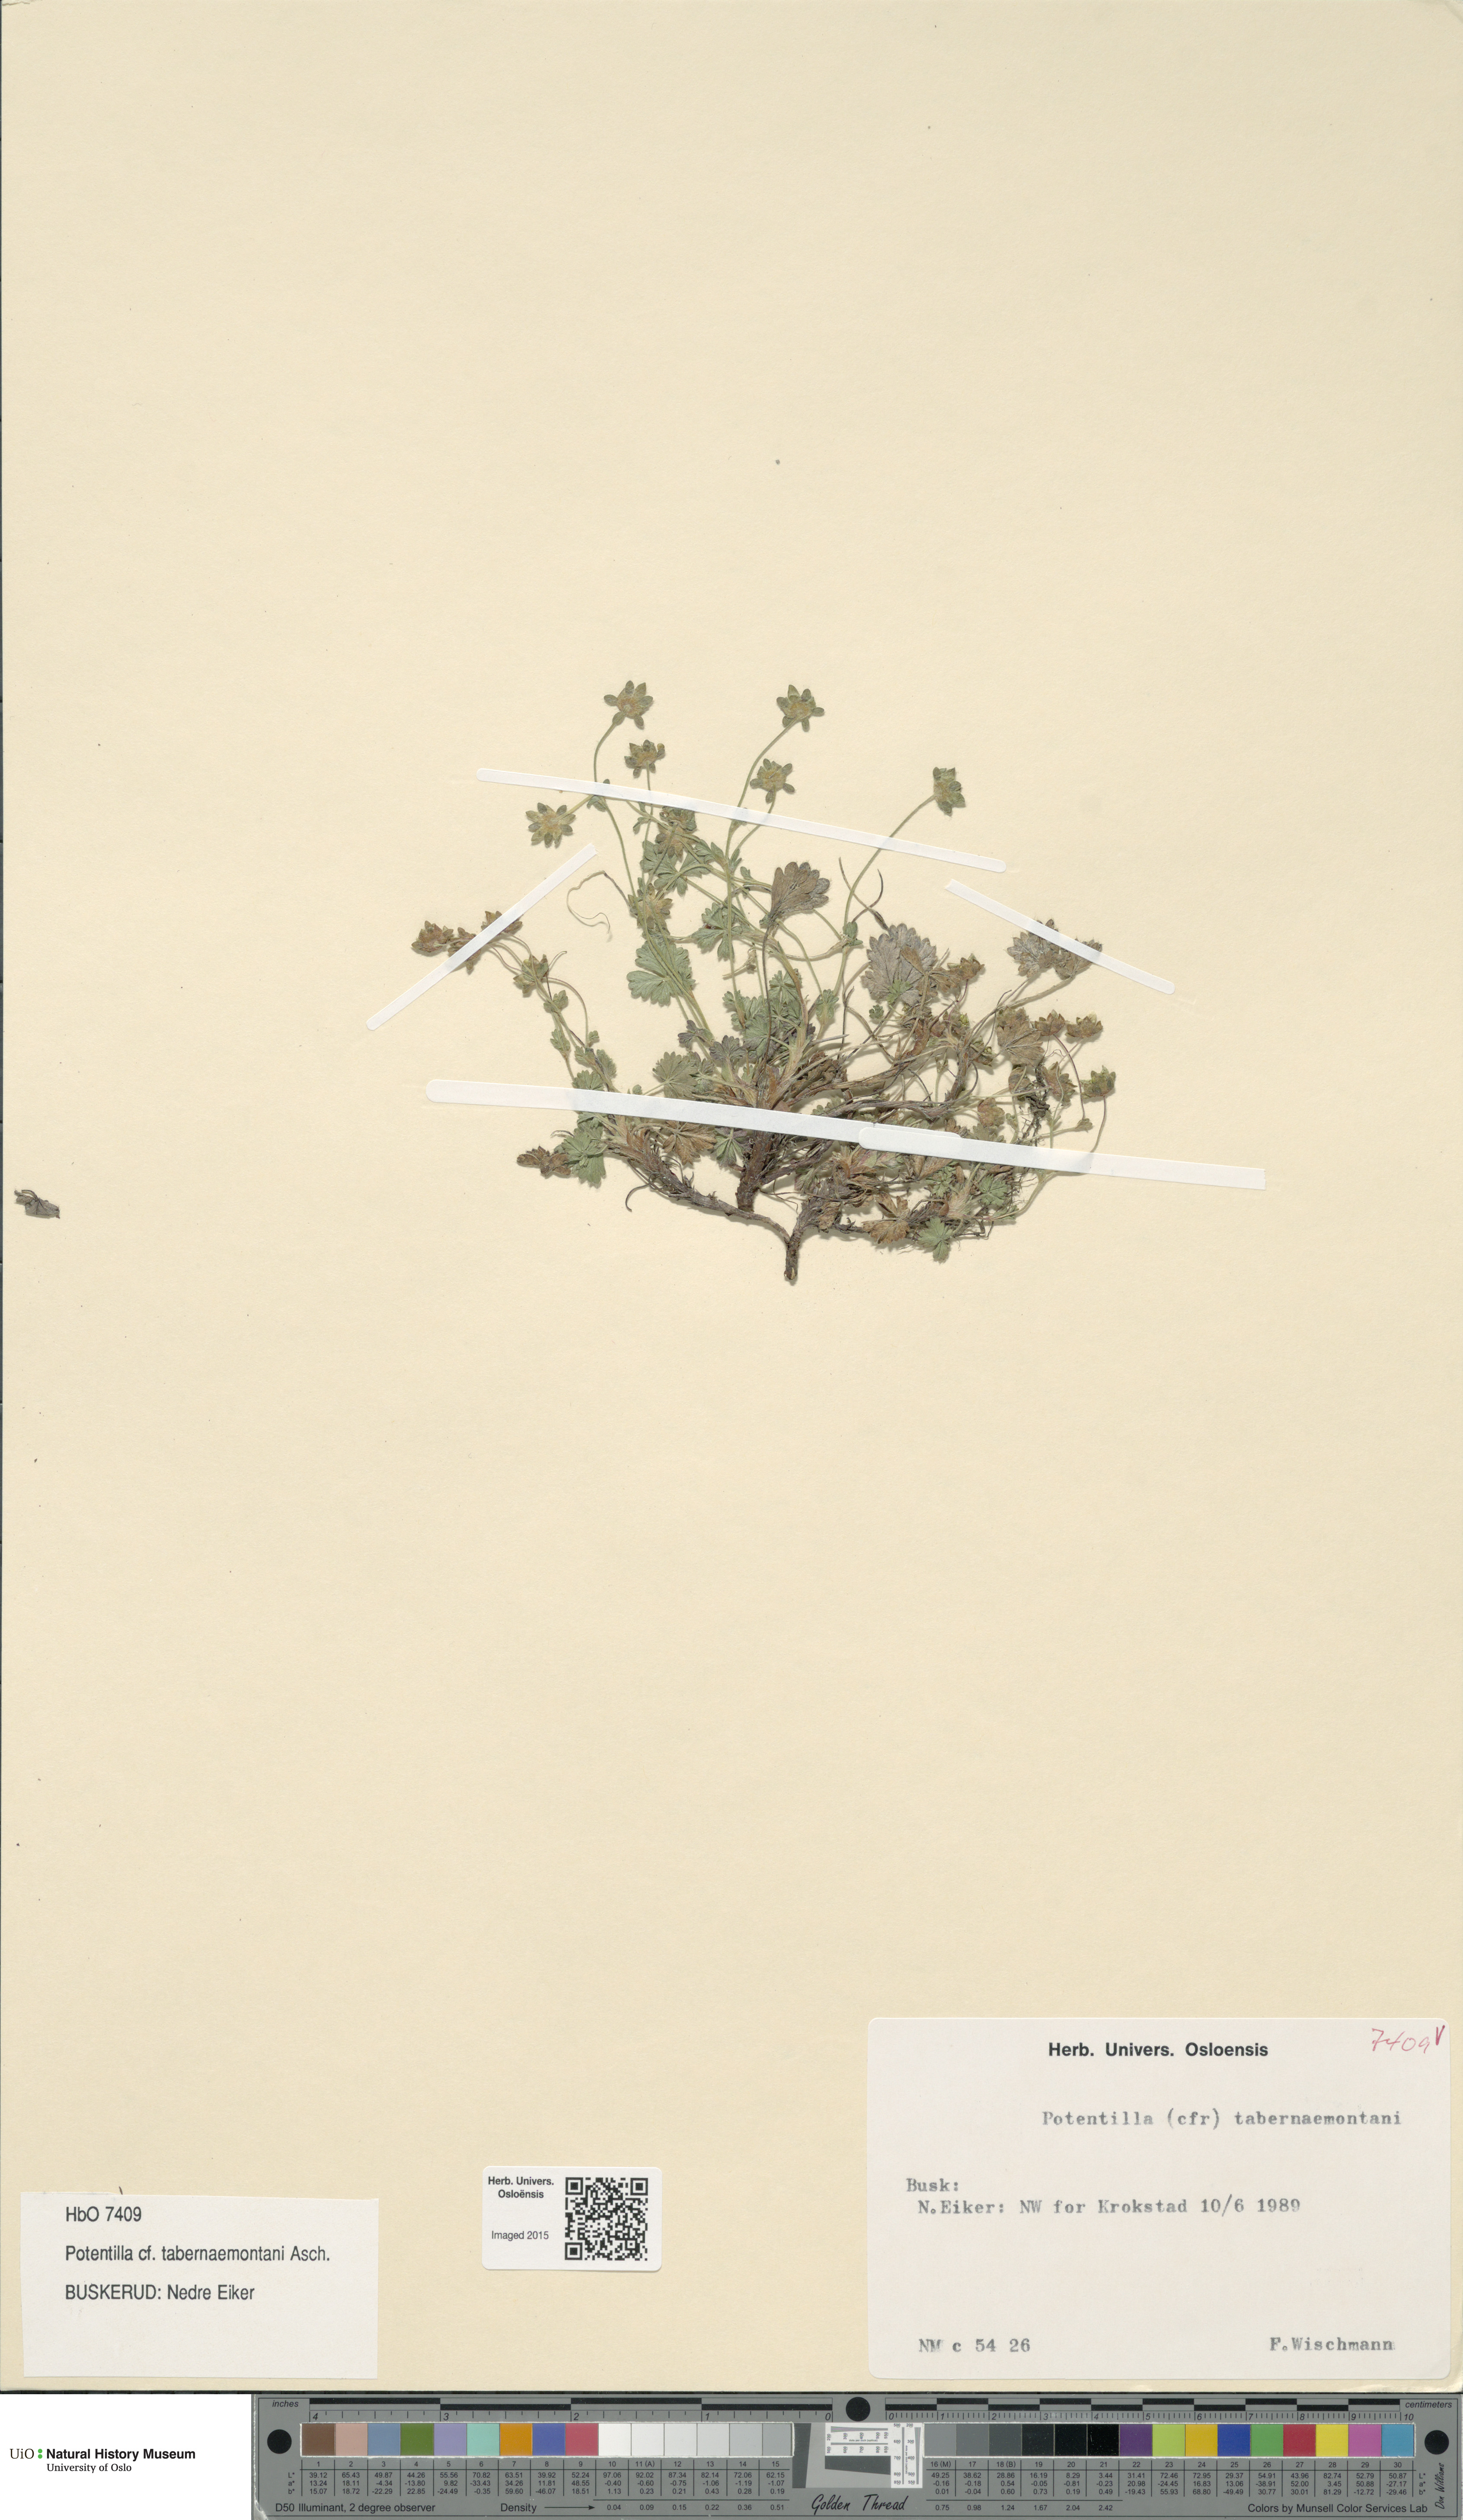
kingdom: Plantae
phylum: Tracheophyta
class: Magnoliopsida
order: Rosales
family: Rosaceae
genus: Potentilla
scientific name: Potentilla verna
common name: Spring cinquefoil
